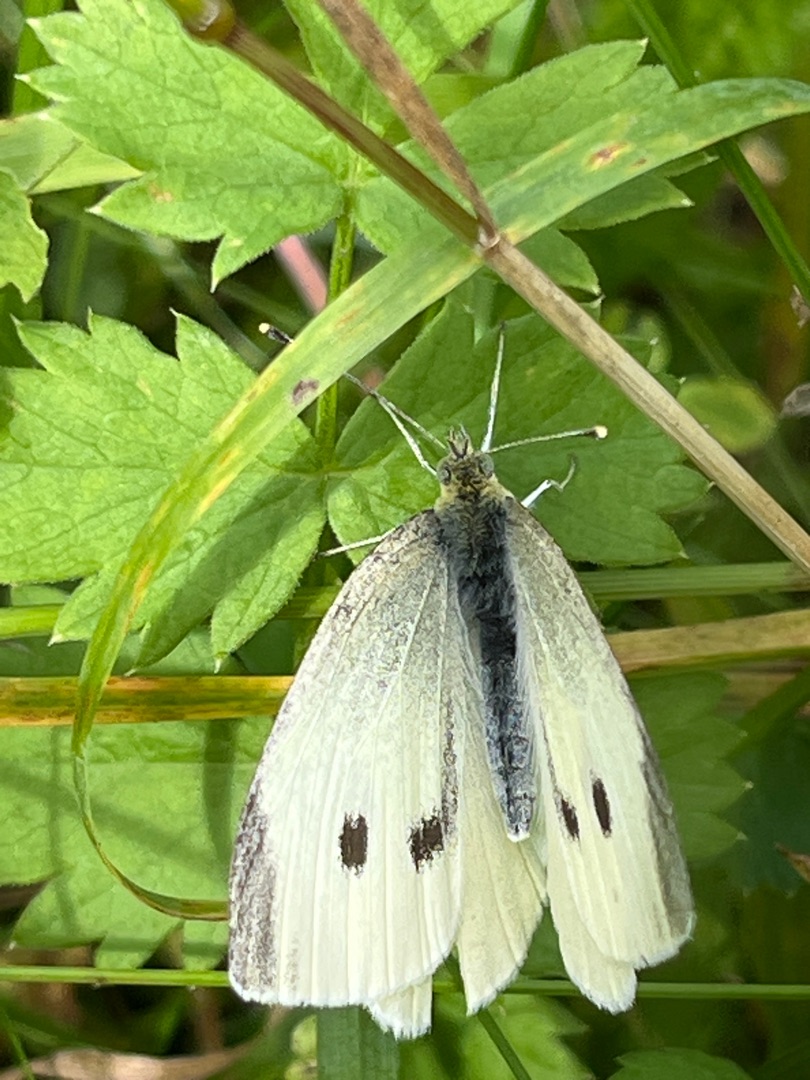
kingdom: Animalia
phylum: Arthropoda
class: Insecta
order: Lepidoptera
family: Pieridae
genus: Pieris
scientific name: Pieris rapae
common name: Lille kålsommerfugl
